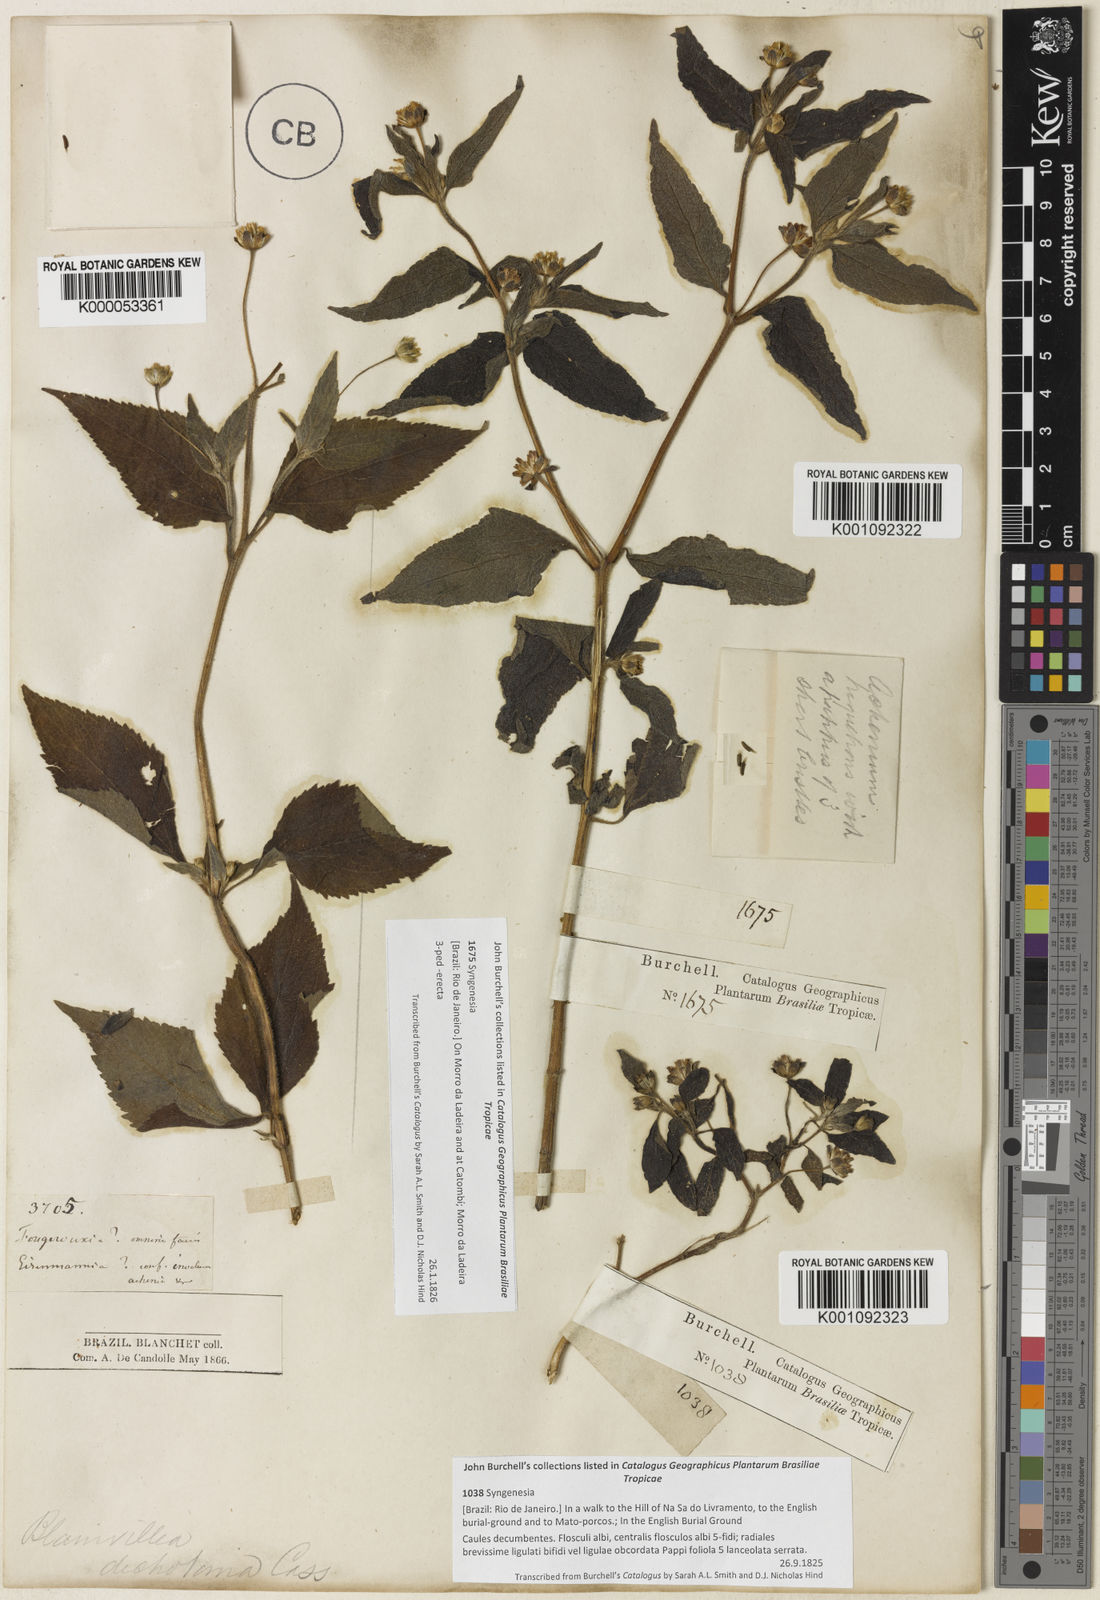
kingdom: Plantae
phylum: Tracheophyta
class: Magnoliopsida
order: Asterales
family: Asteraceae
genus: Blainvillea
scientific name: Blainvillea
